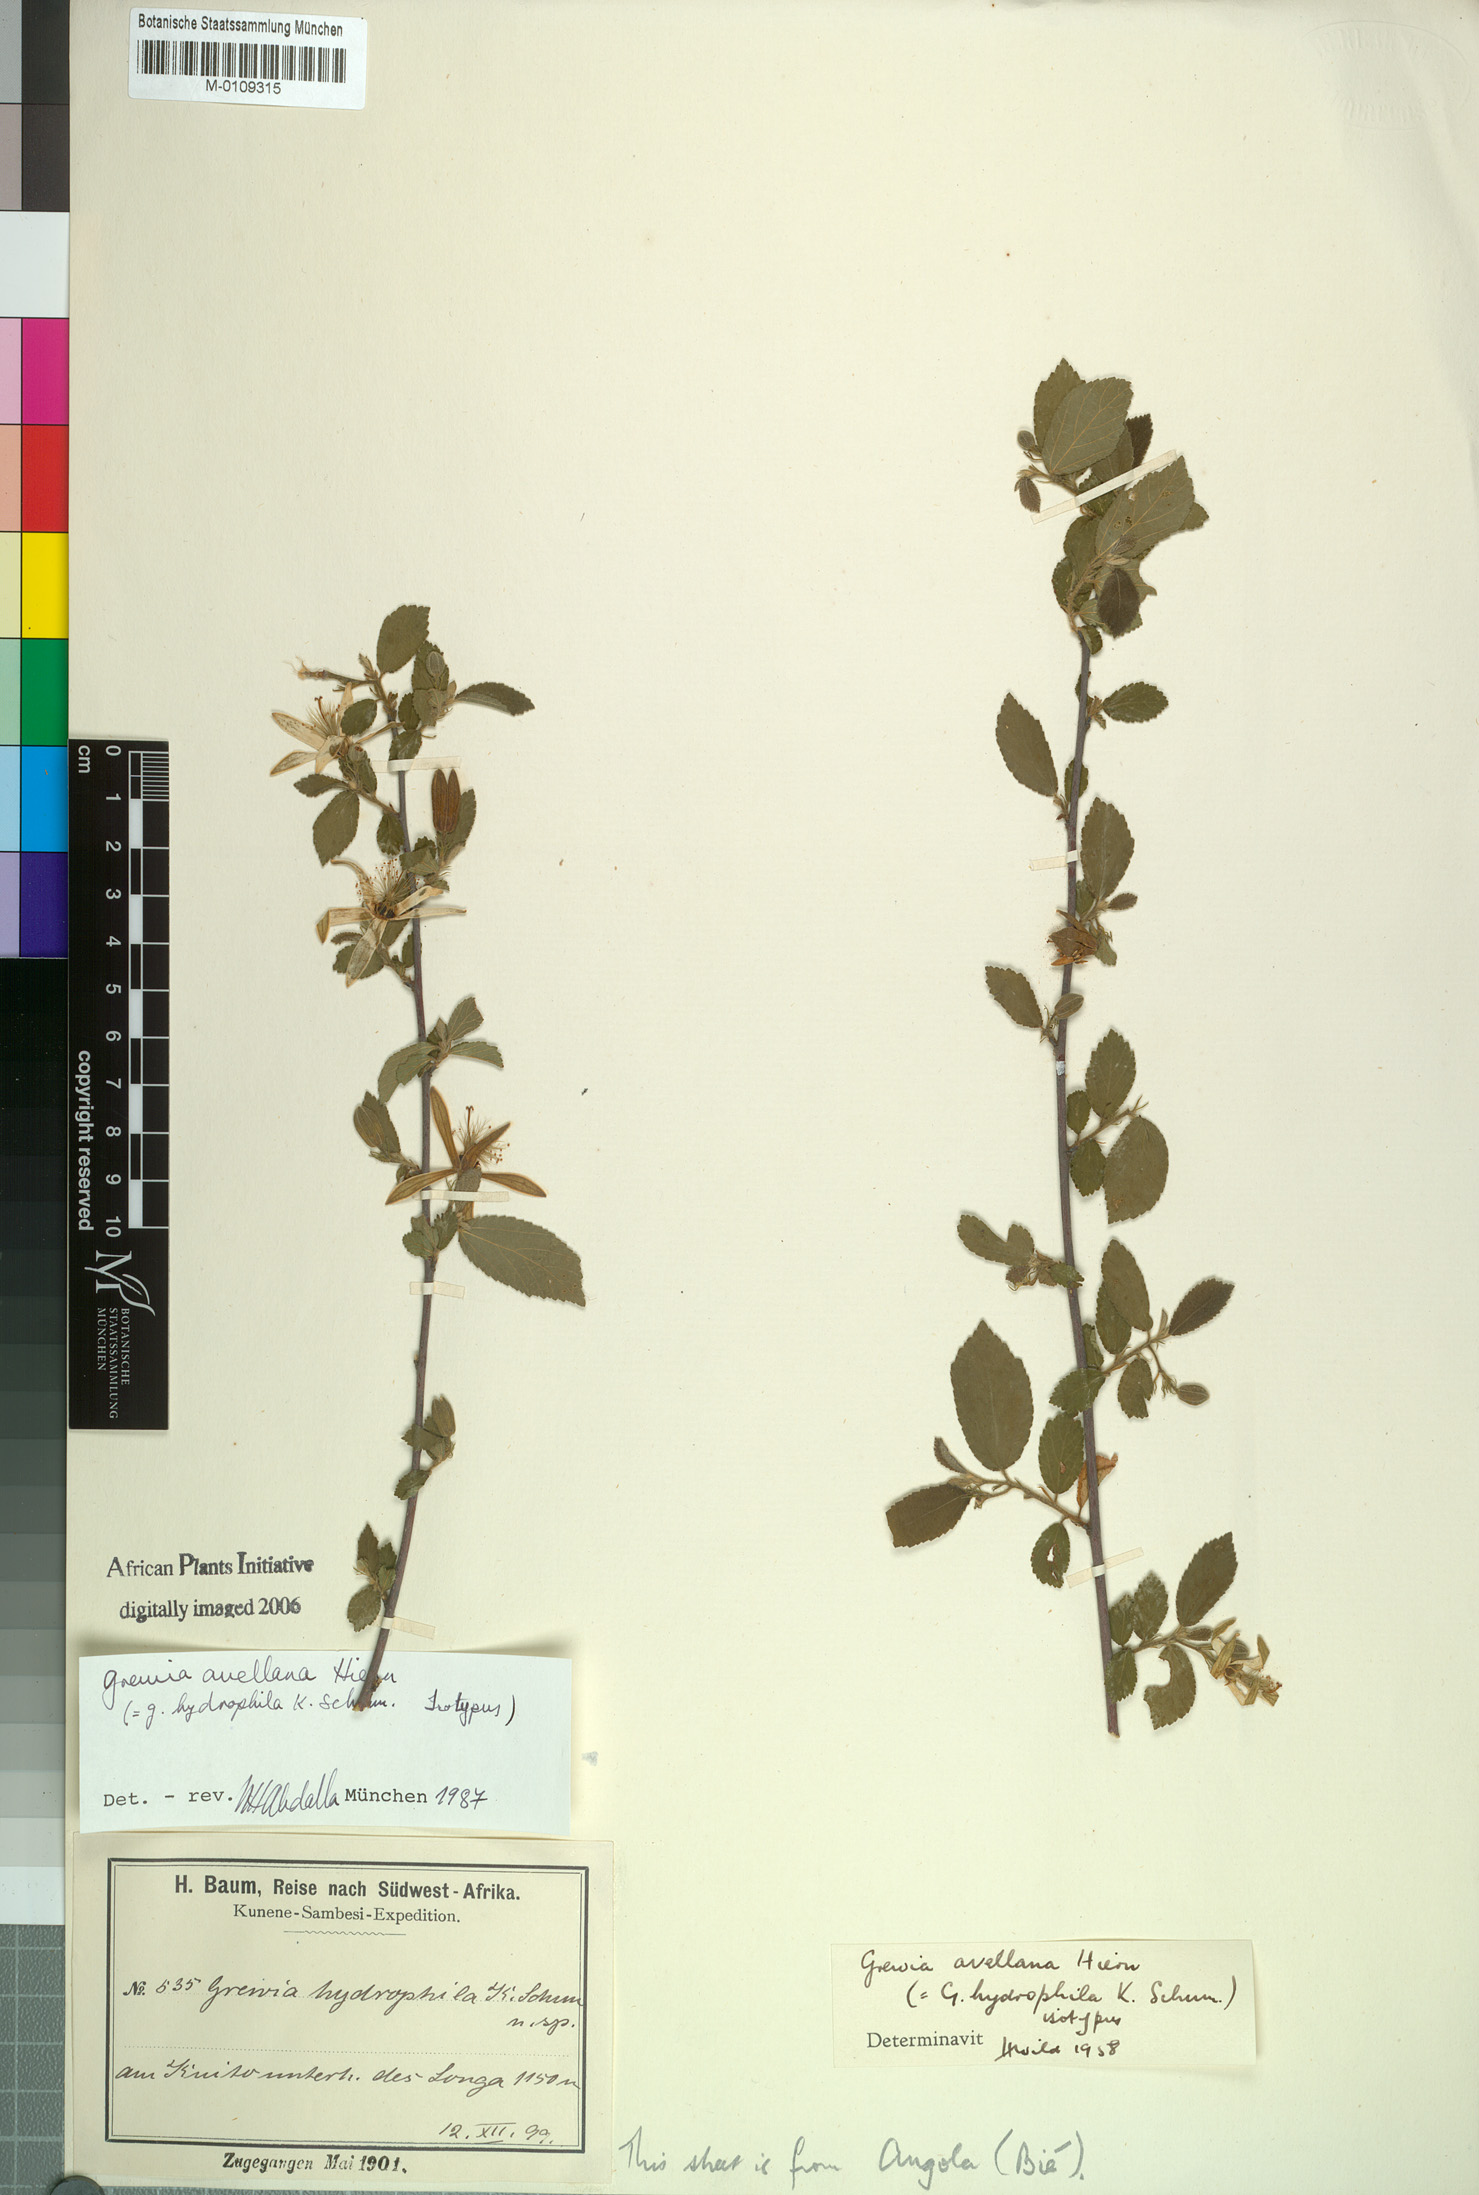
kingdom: Plantae
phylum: Tracheophyta
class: Magnoliopsida
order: Malvales
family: Malvaceae
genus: Grewia
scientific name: Grewia avellana
